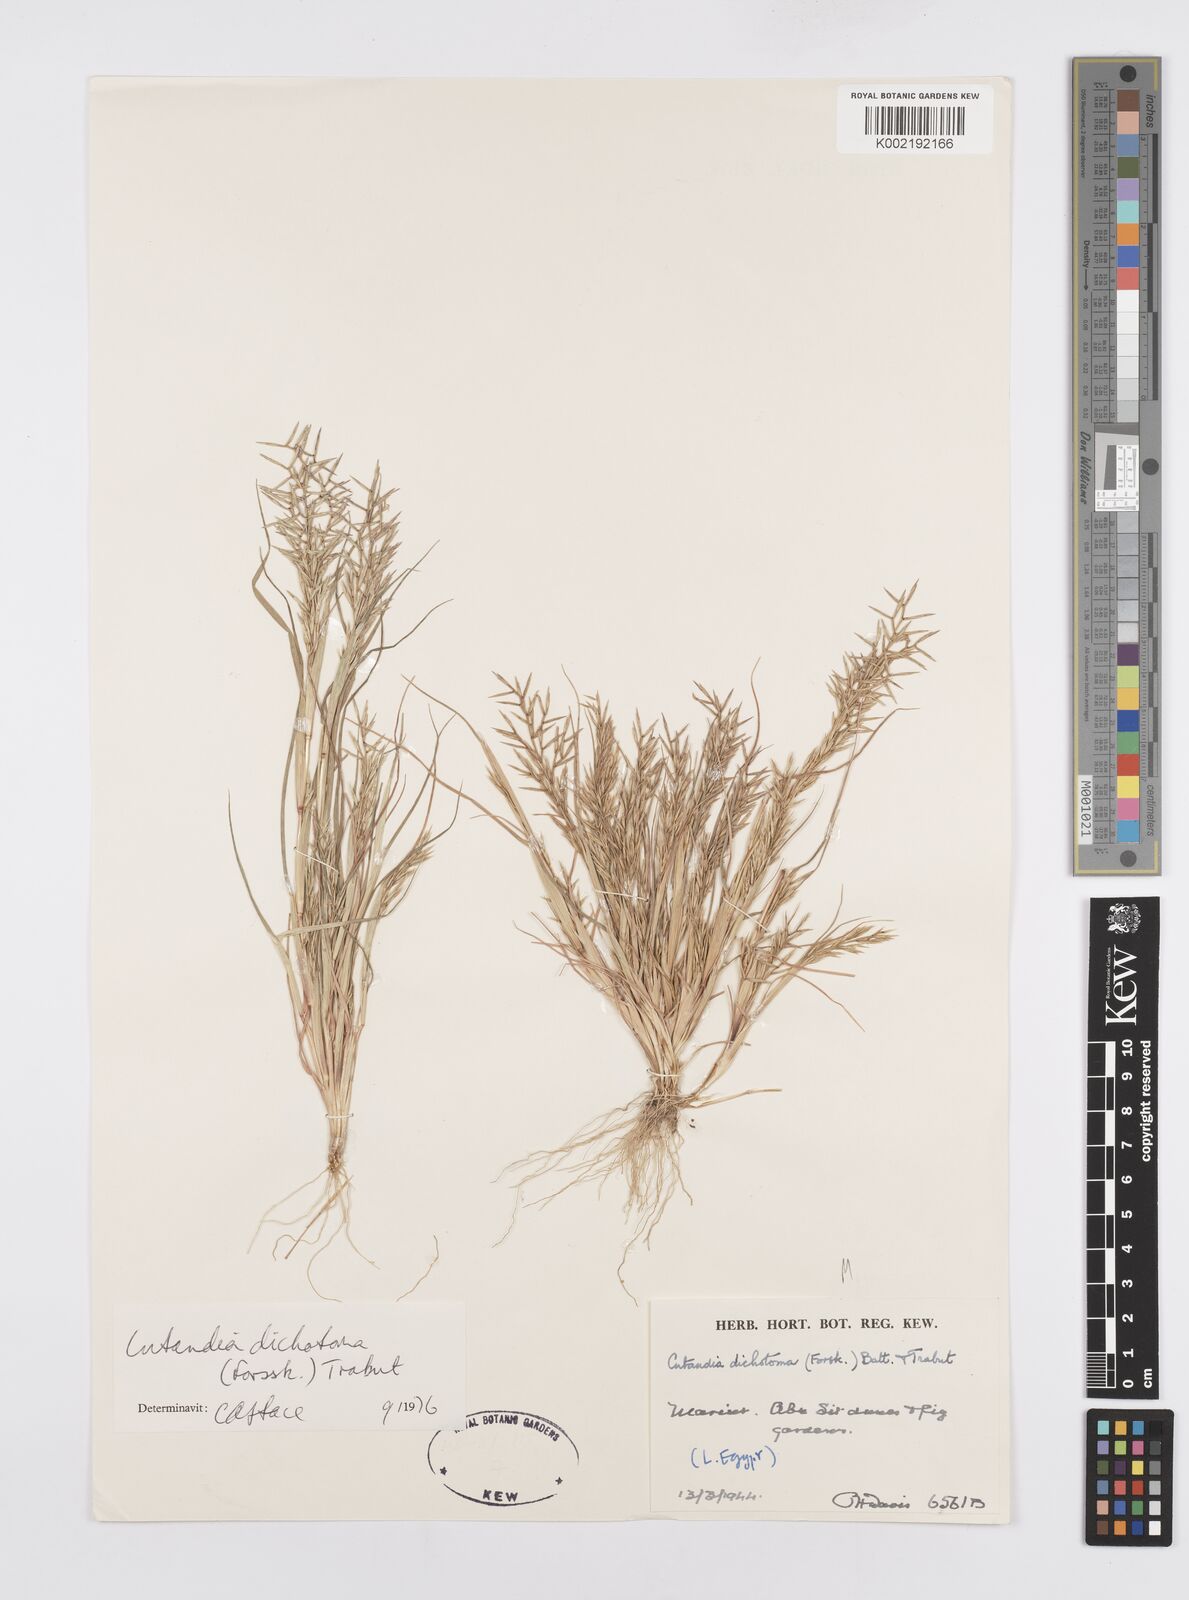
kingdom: Plantae
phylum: Tracheophyta
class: Liliopsida
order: Poales
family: Poaceae
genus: Cutandia
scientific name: Cutandia dichotoma
